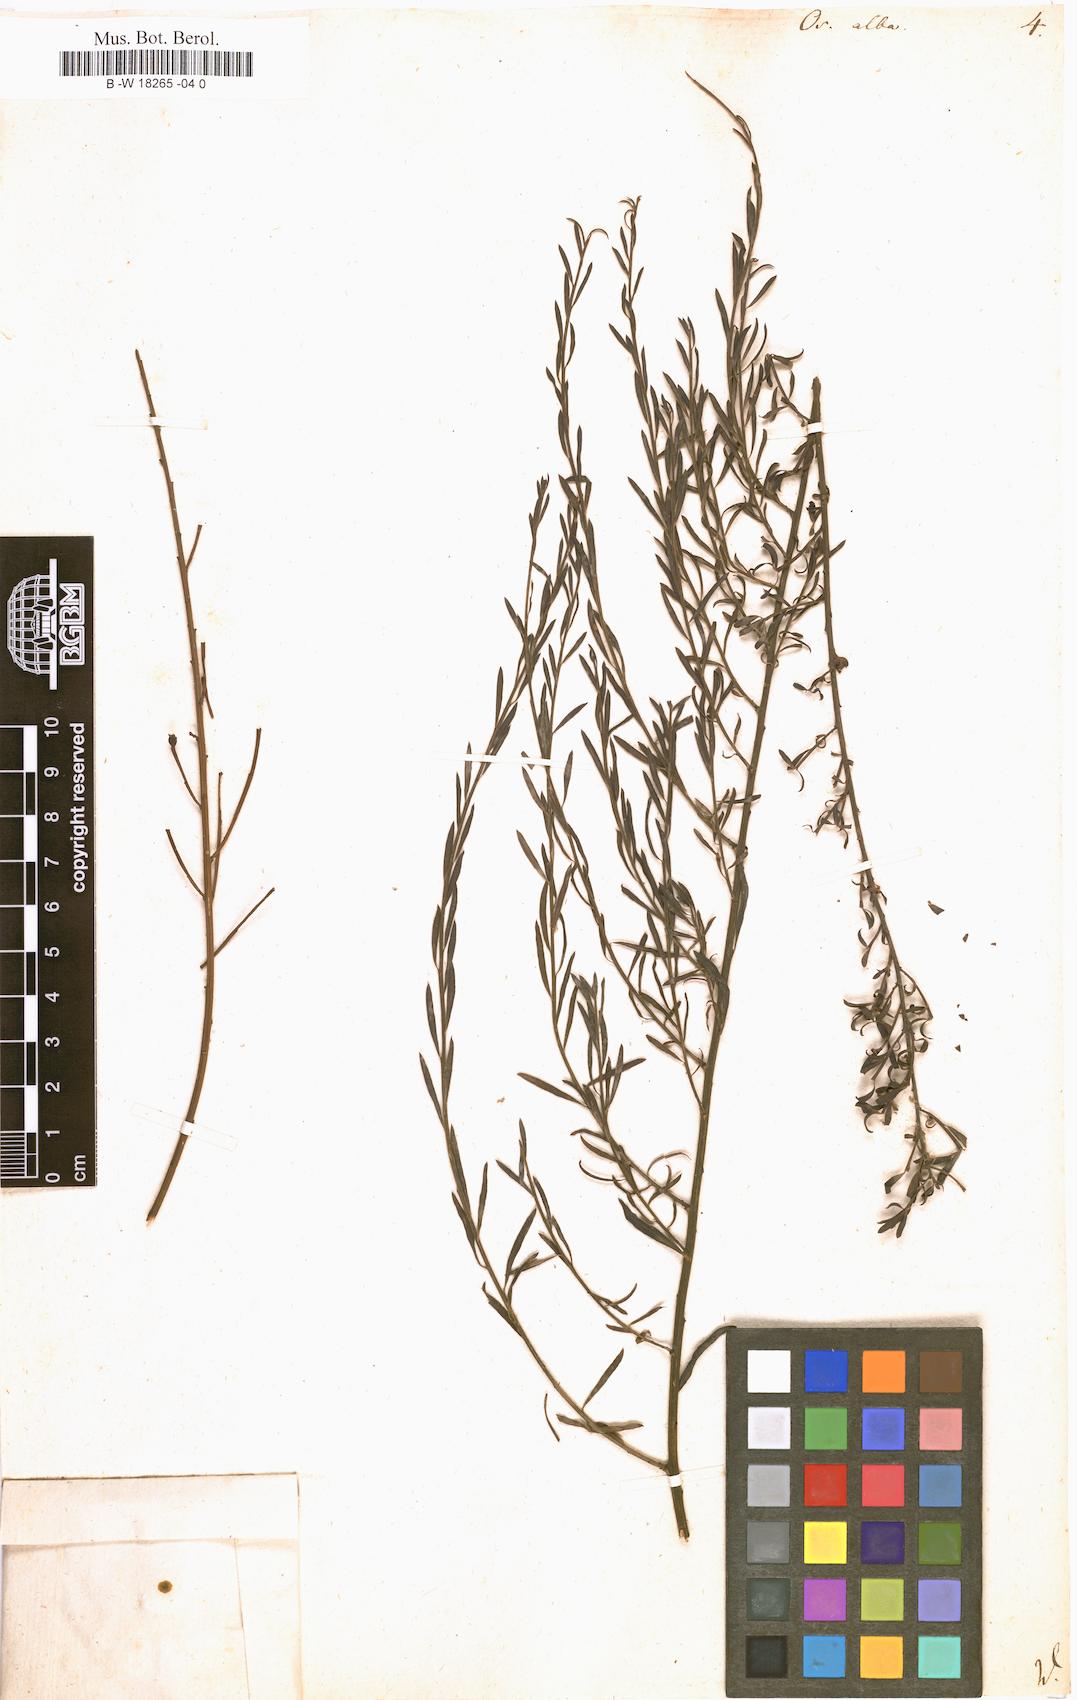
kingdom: Plantae
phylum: Tracheophyta
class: Magnoliopsida
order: Santalales
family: Santalaceae
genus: Osyris
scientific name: Osyris alba
